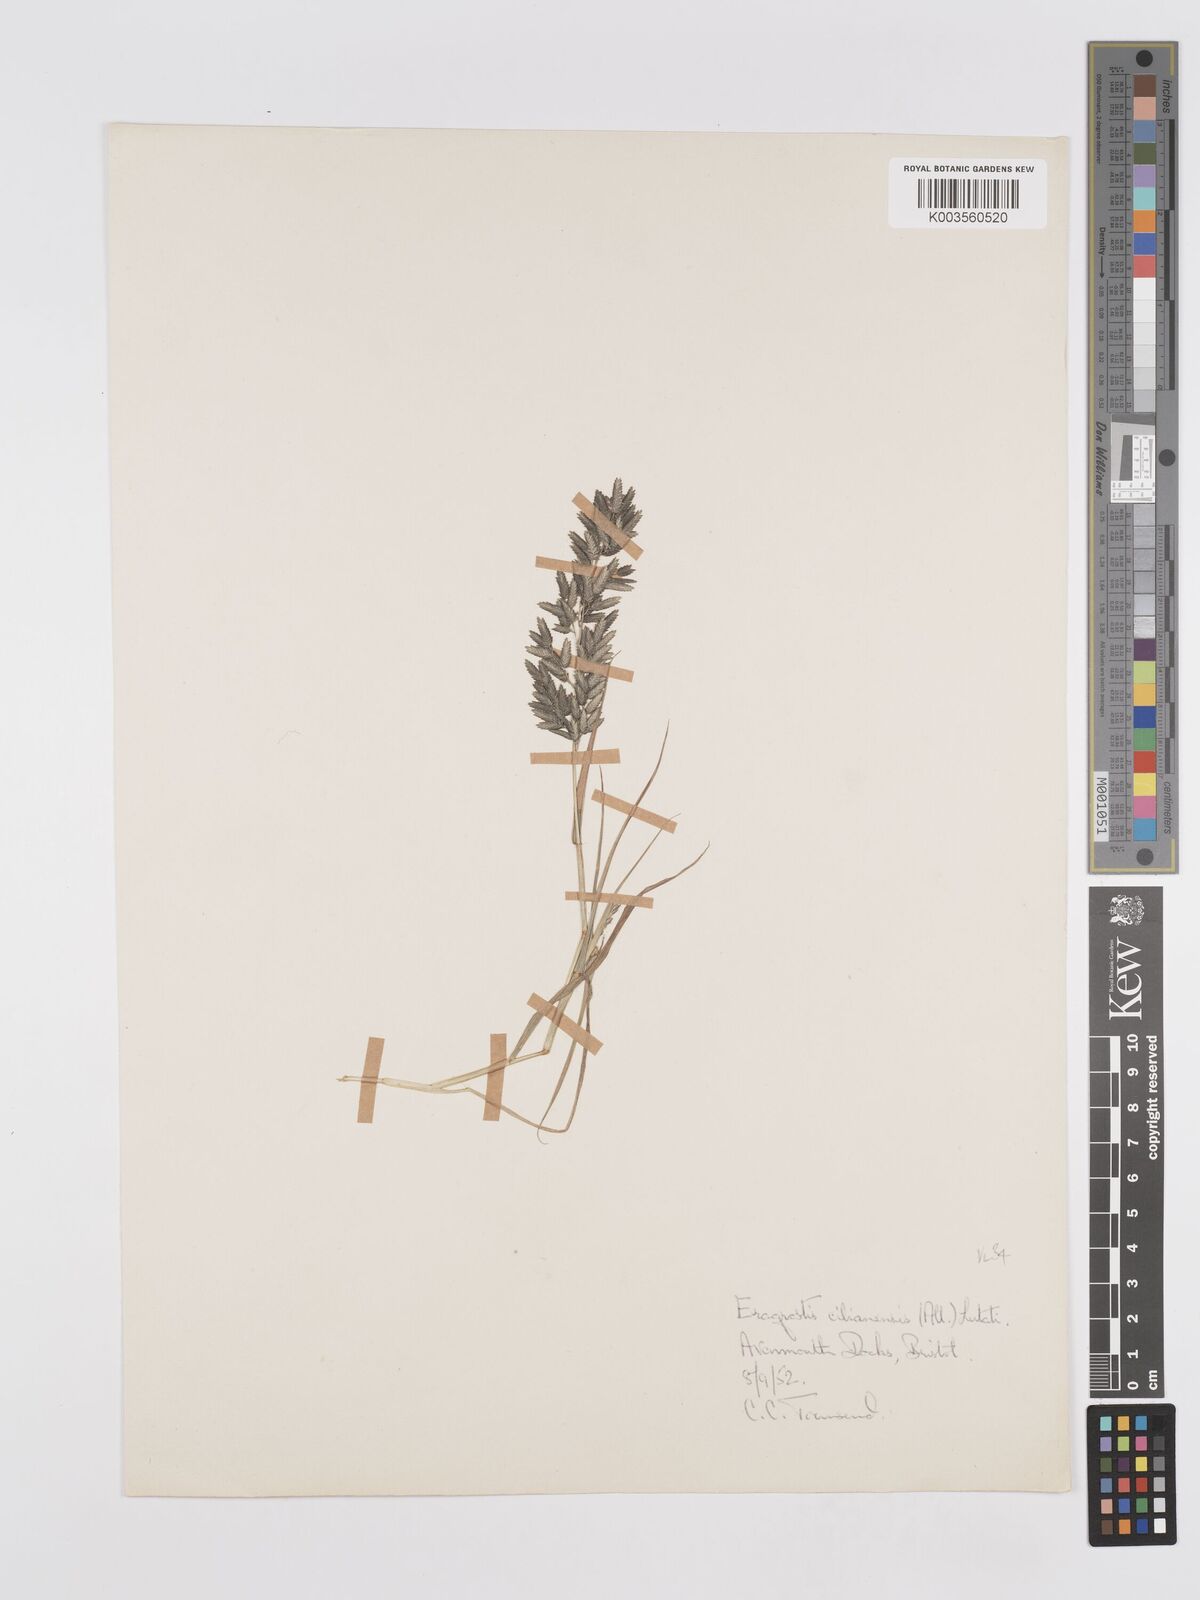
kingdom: Plantae
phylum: Tracheophyta
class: Liliopsida
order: Poales
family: Poaceae
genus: Eragrostis
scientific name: Eragrostis cilianensis
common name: Stinkgrass
